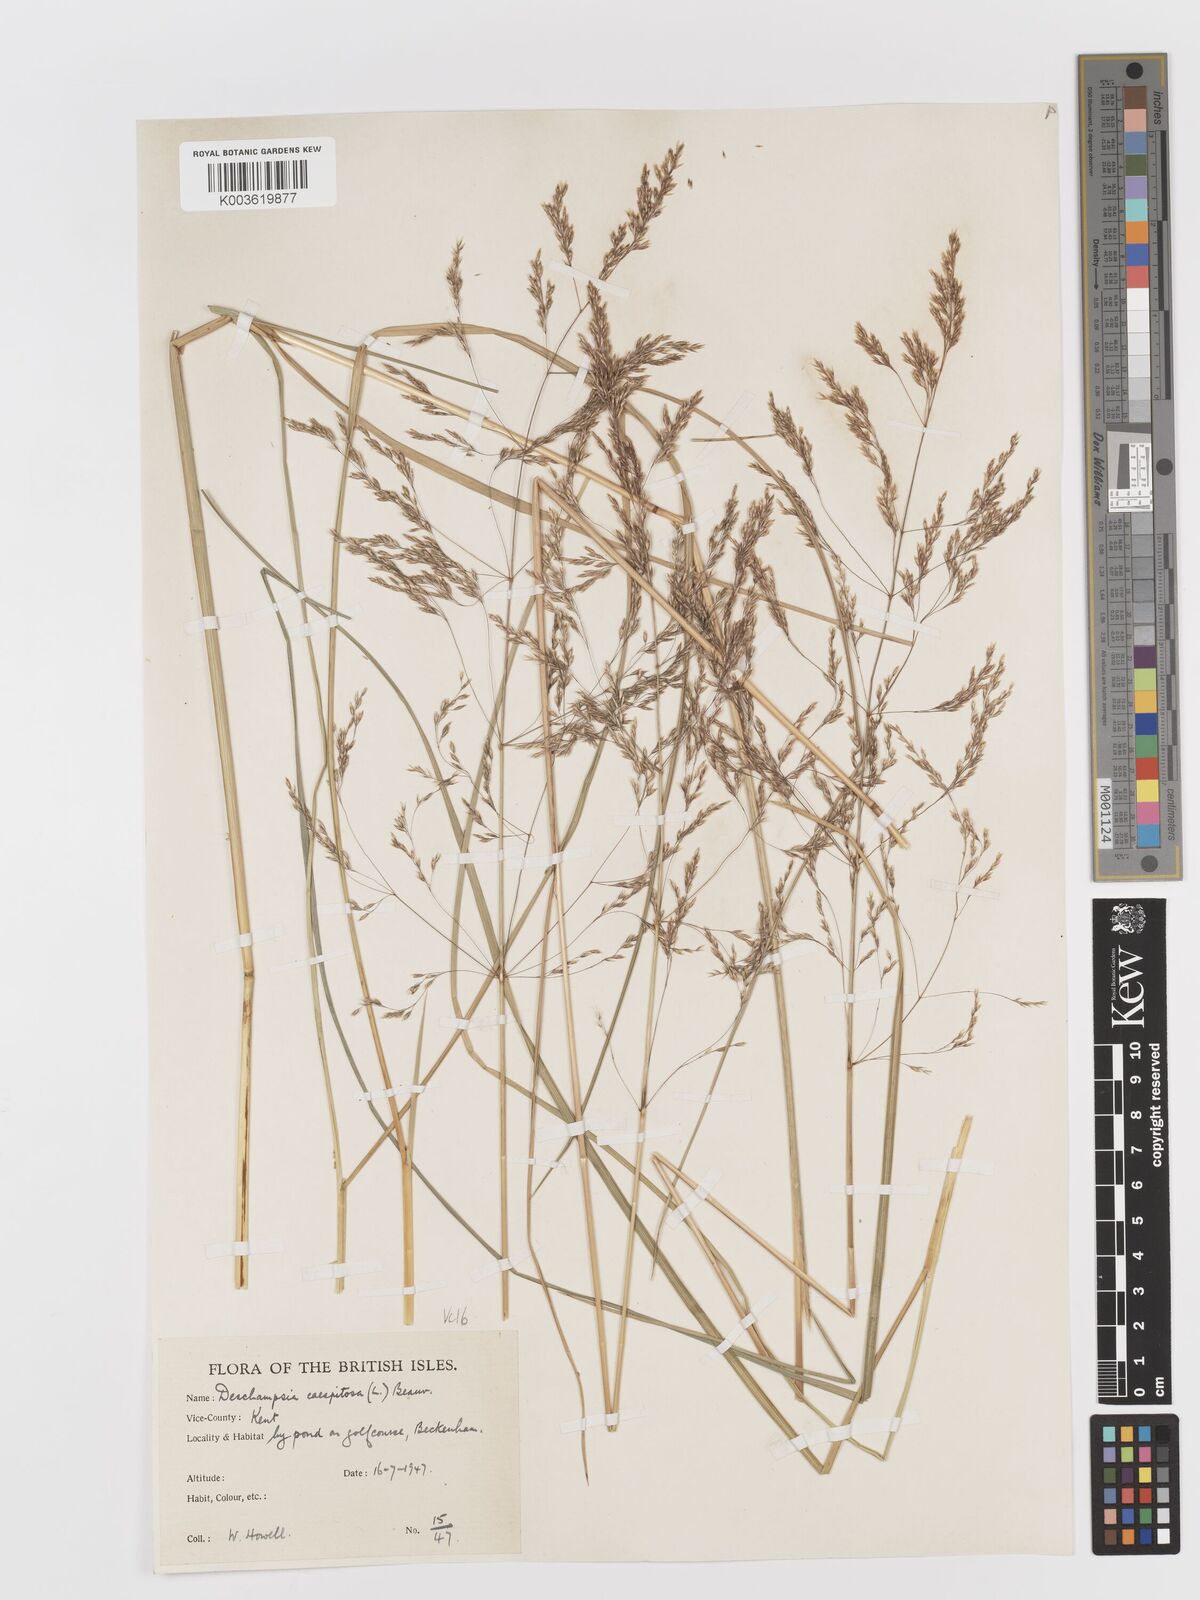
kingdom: Plantae
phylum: Tracheophyta
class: Liliopsida
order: Poales
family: Poaceae
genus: Deschampsia
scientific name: Deschampsia cespitosa
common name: Tufted hair-grass
